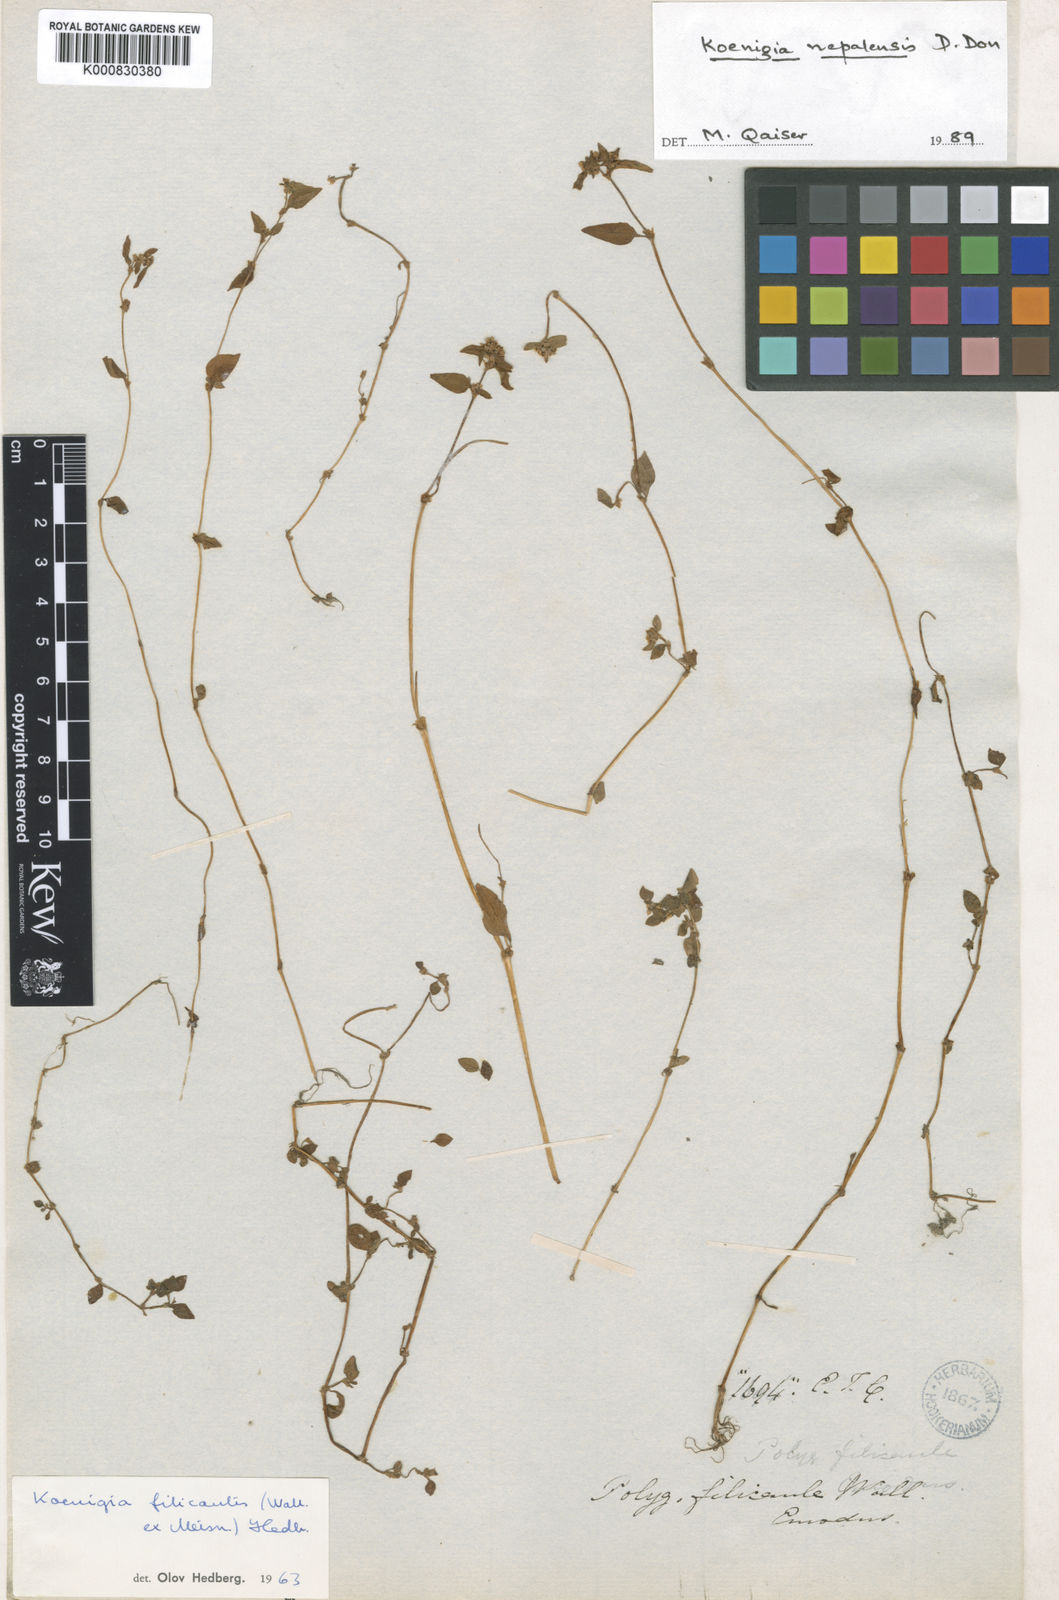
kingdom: Plantae
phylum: Tracheophyta
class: Magnoliopsida
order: Caryophyllales
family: Polygonaceae
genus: Koenigia
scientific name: Koenigia filicaulis
